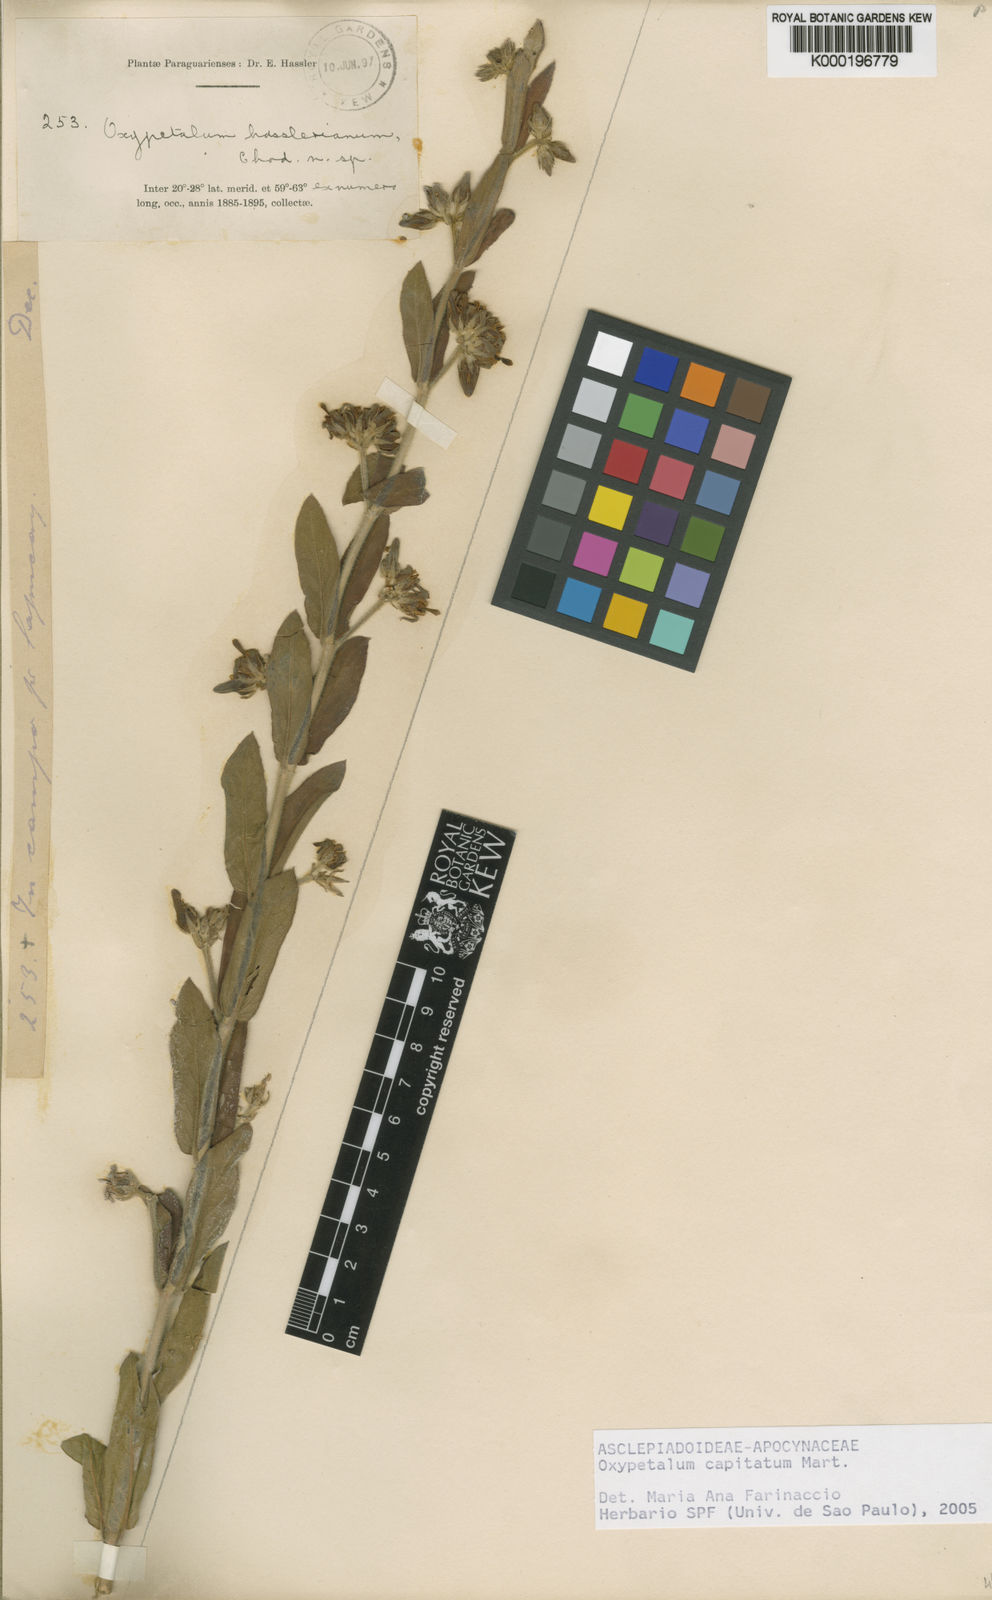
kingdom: Plantae
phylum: Tracheophyta
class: Magnoliopsida
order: Gentianales
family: Apocynaceae
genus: Oxypetalum
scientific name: Oxypetalum capitatum
